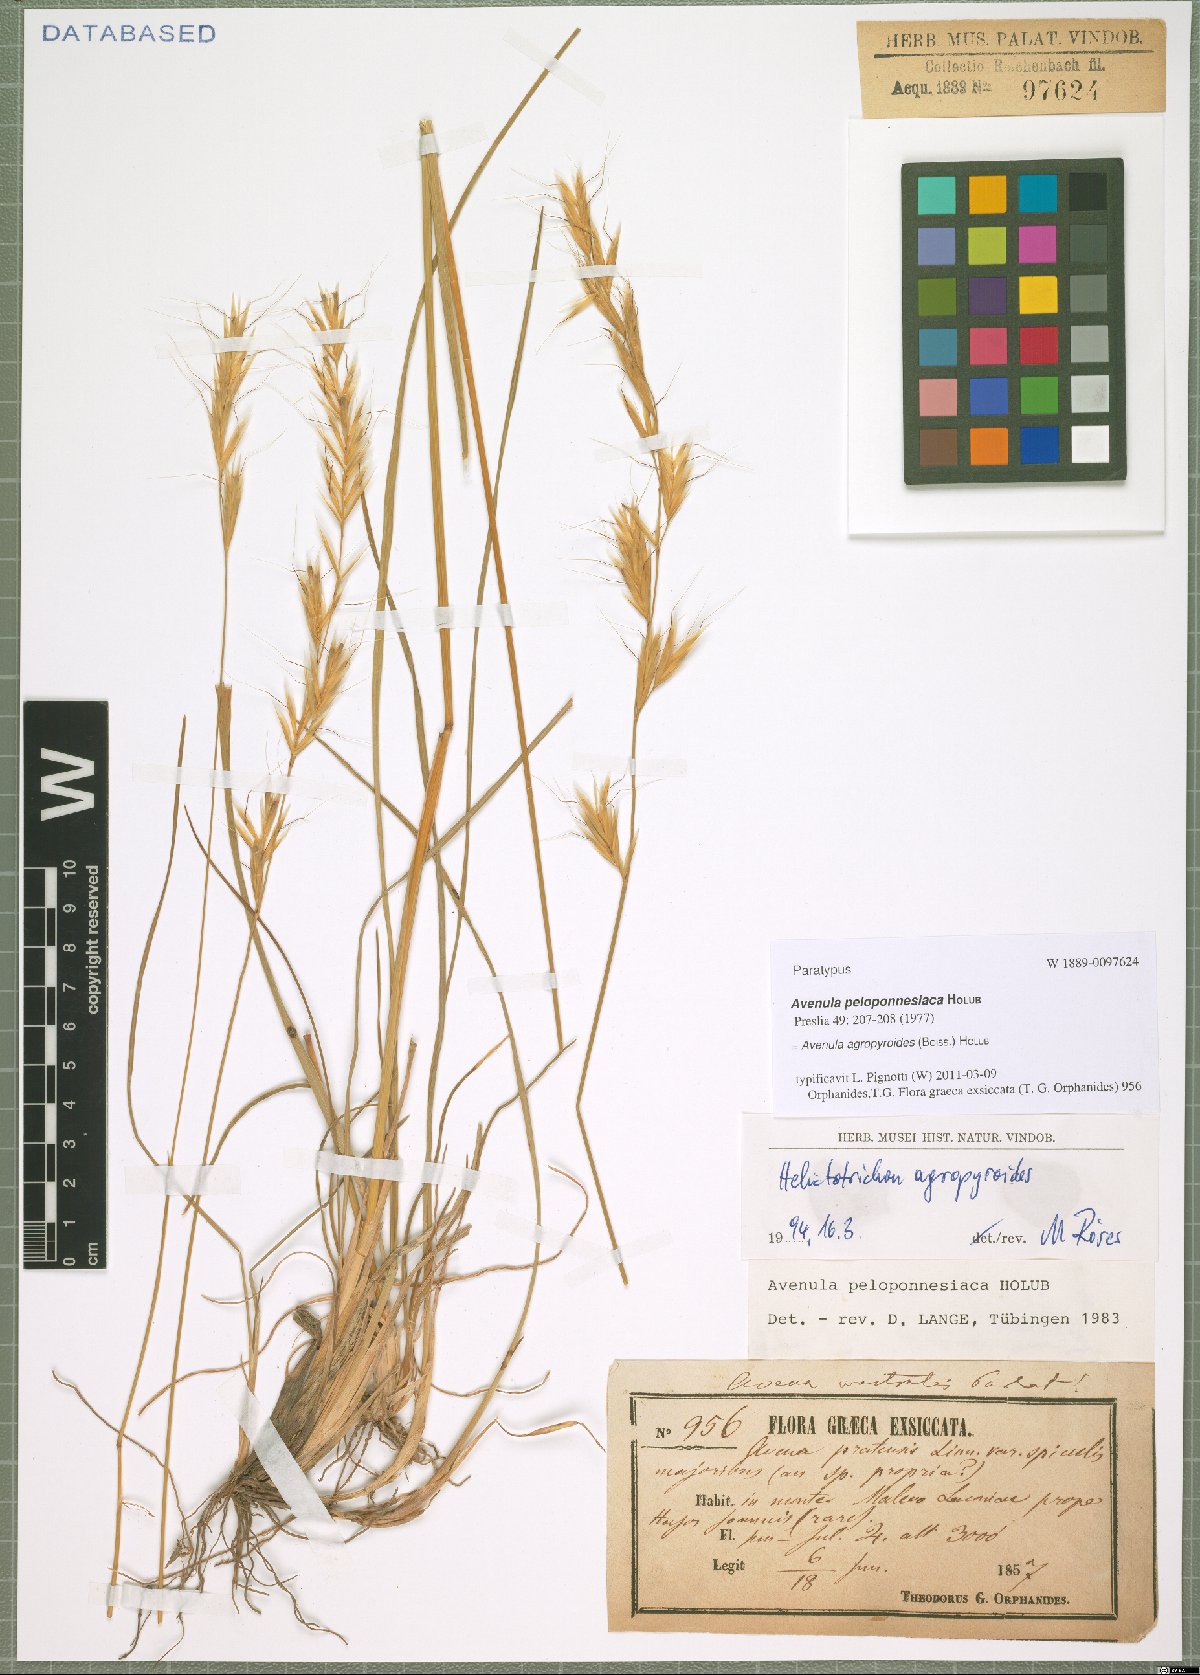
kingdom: Plantae
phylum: Tracheophyta
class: Liliopsida
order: Poales
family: Poaceae
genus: Helictochloa
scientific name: Helictochloa agropyroides
